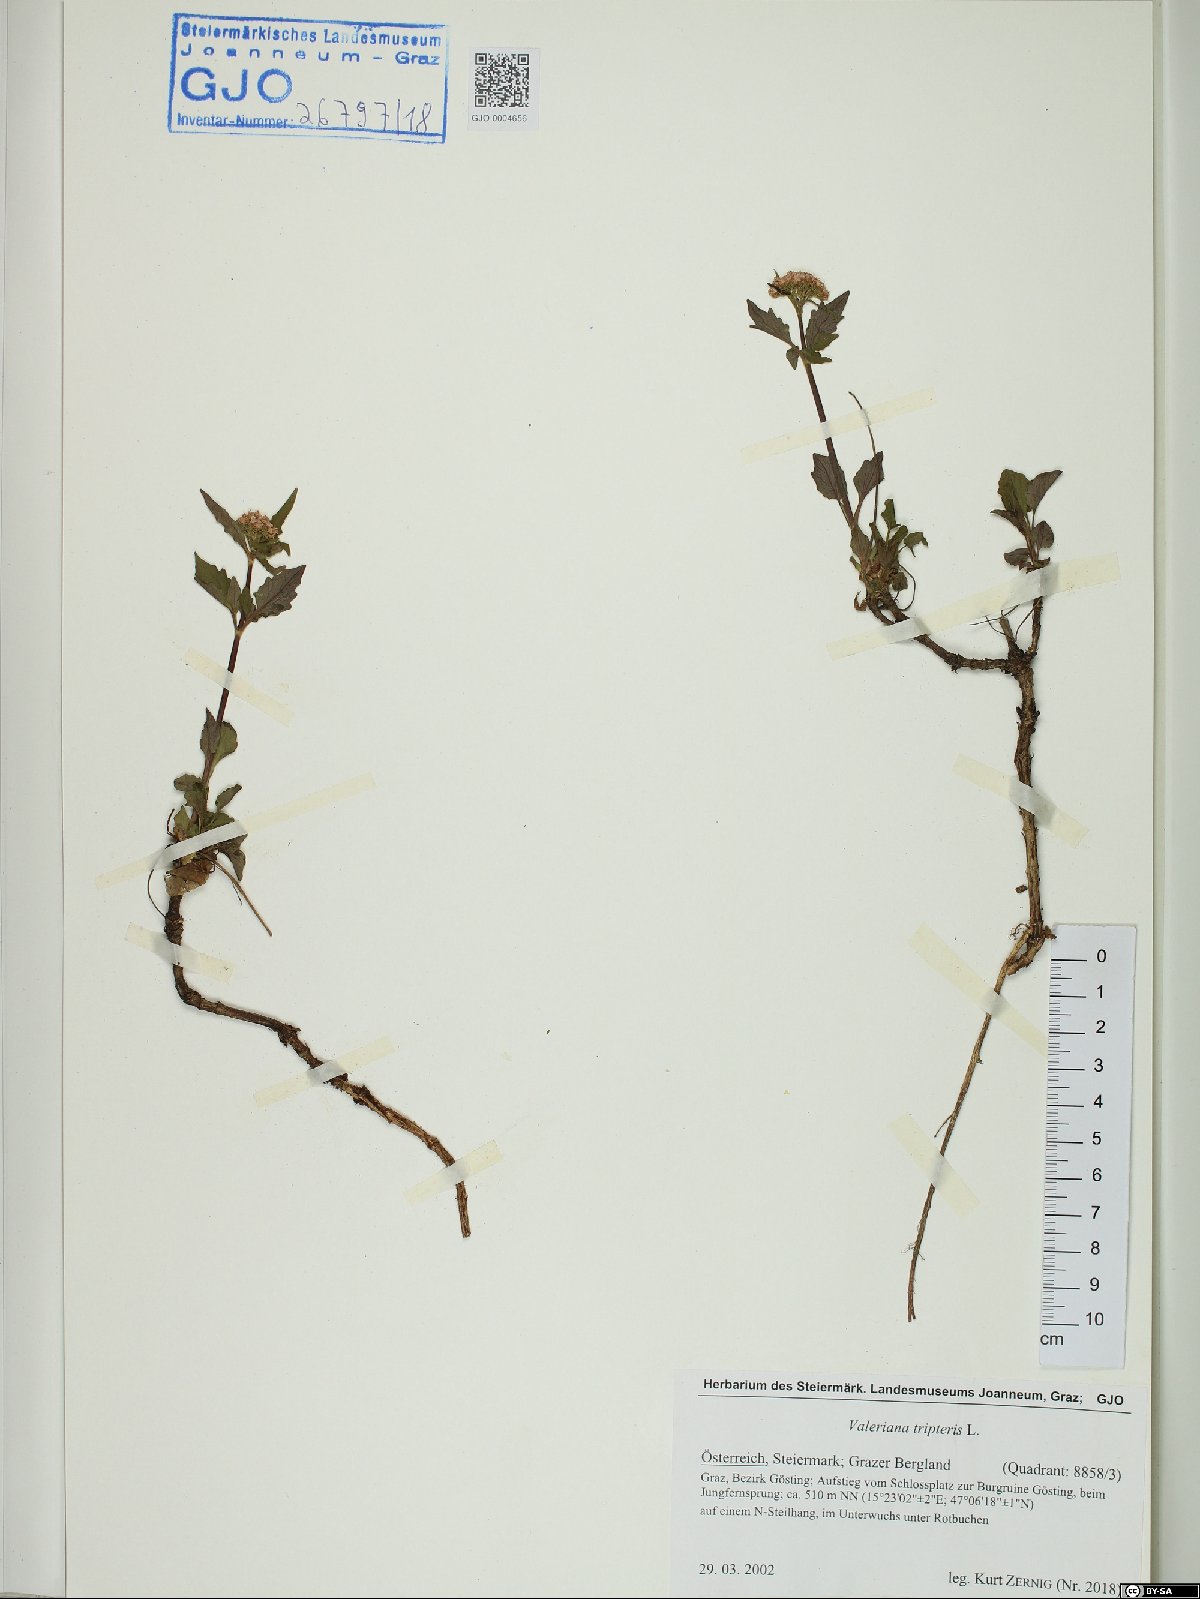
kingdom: Plantae
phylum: Tracheophyta
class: Magnoliopsida
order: Dipsacales
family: Caprifoliaceae
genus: Valeriana
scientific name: Valeriana tripteris
